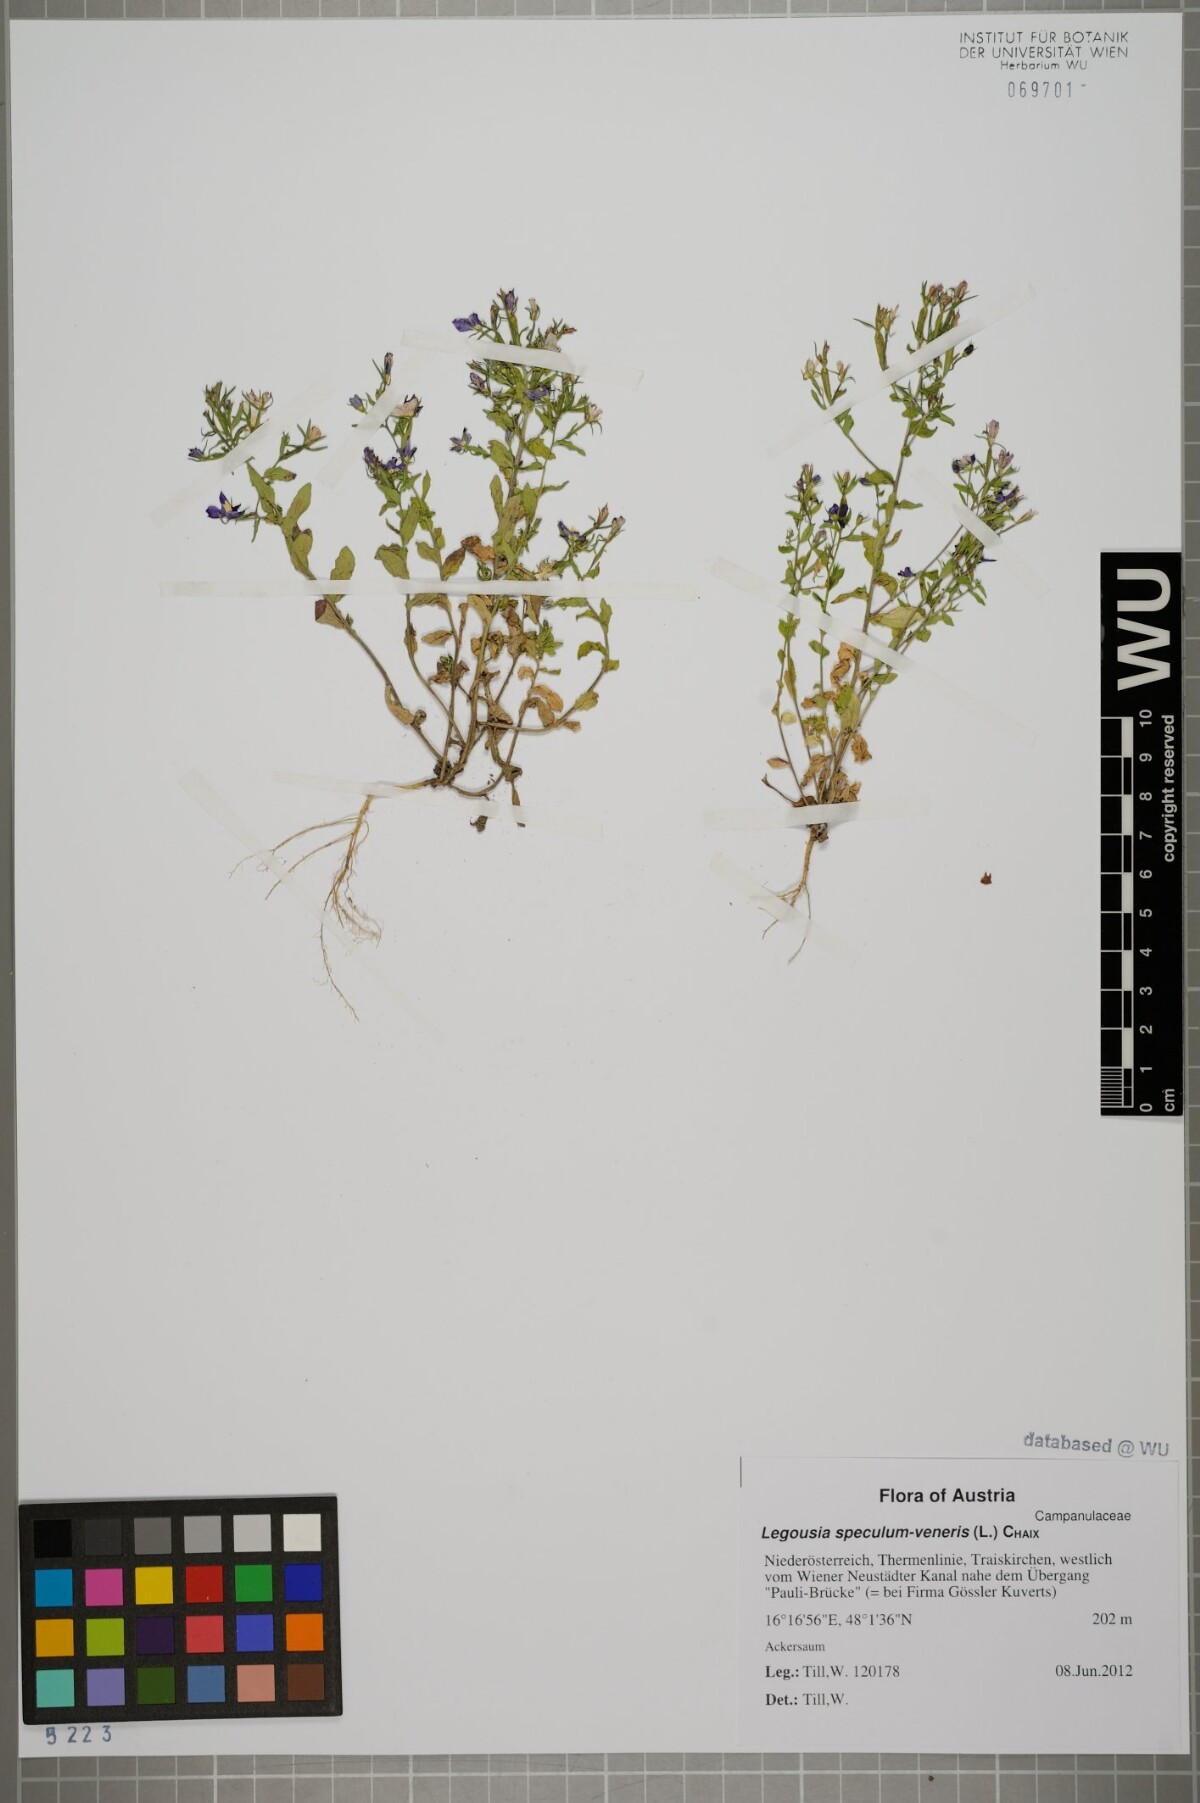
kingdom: Plantae
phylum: Tracheophyta
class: Magnoliopsida
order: Asterales
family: Campanulaceae
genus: Legousia
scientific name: Legousia speculum-veneris
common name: Large venus's-looking-glass
